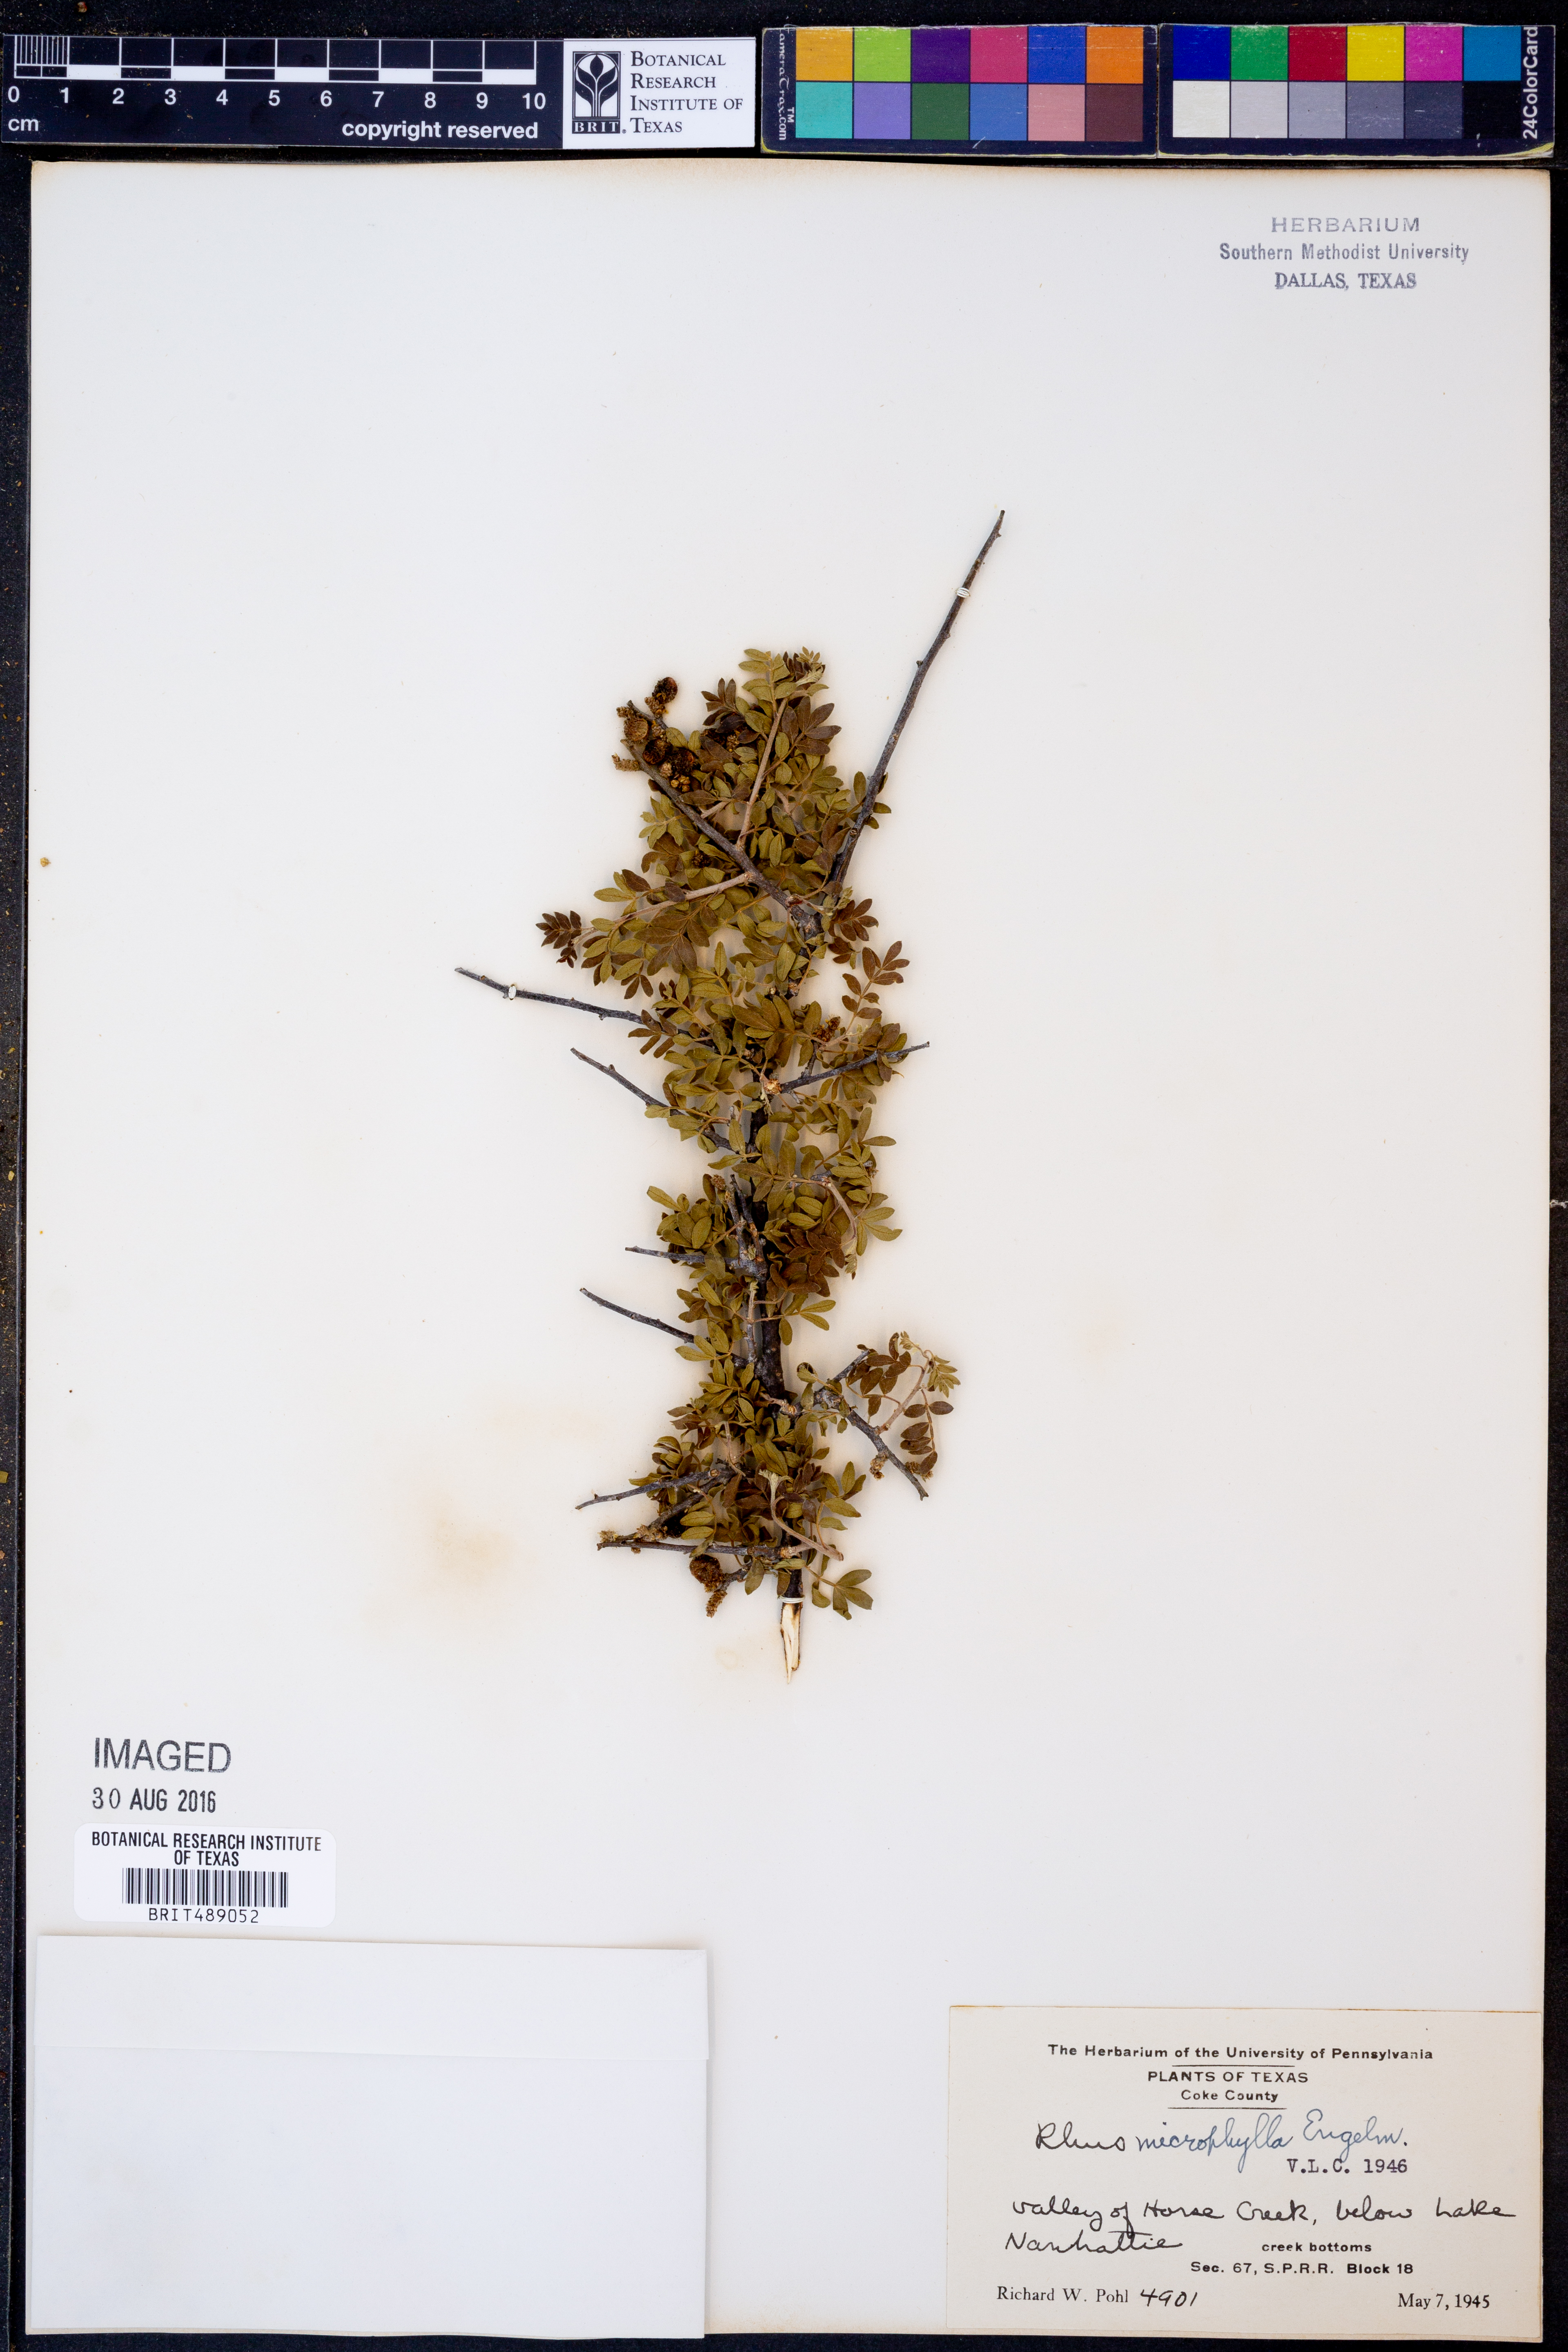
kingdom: Plantae
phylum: Tracheophyta
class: Magnoliopsida
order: Sapindales
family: Anacardiaceae
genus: Rhus
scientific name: Rhus microphylla
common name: Desert sumac
